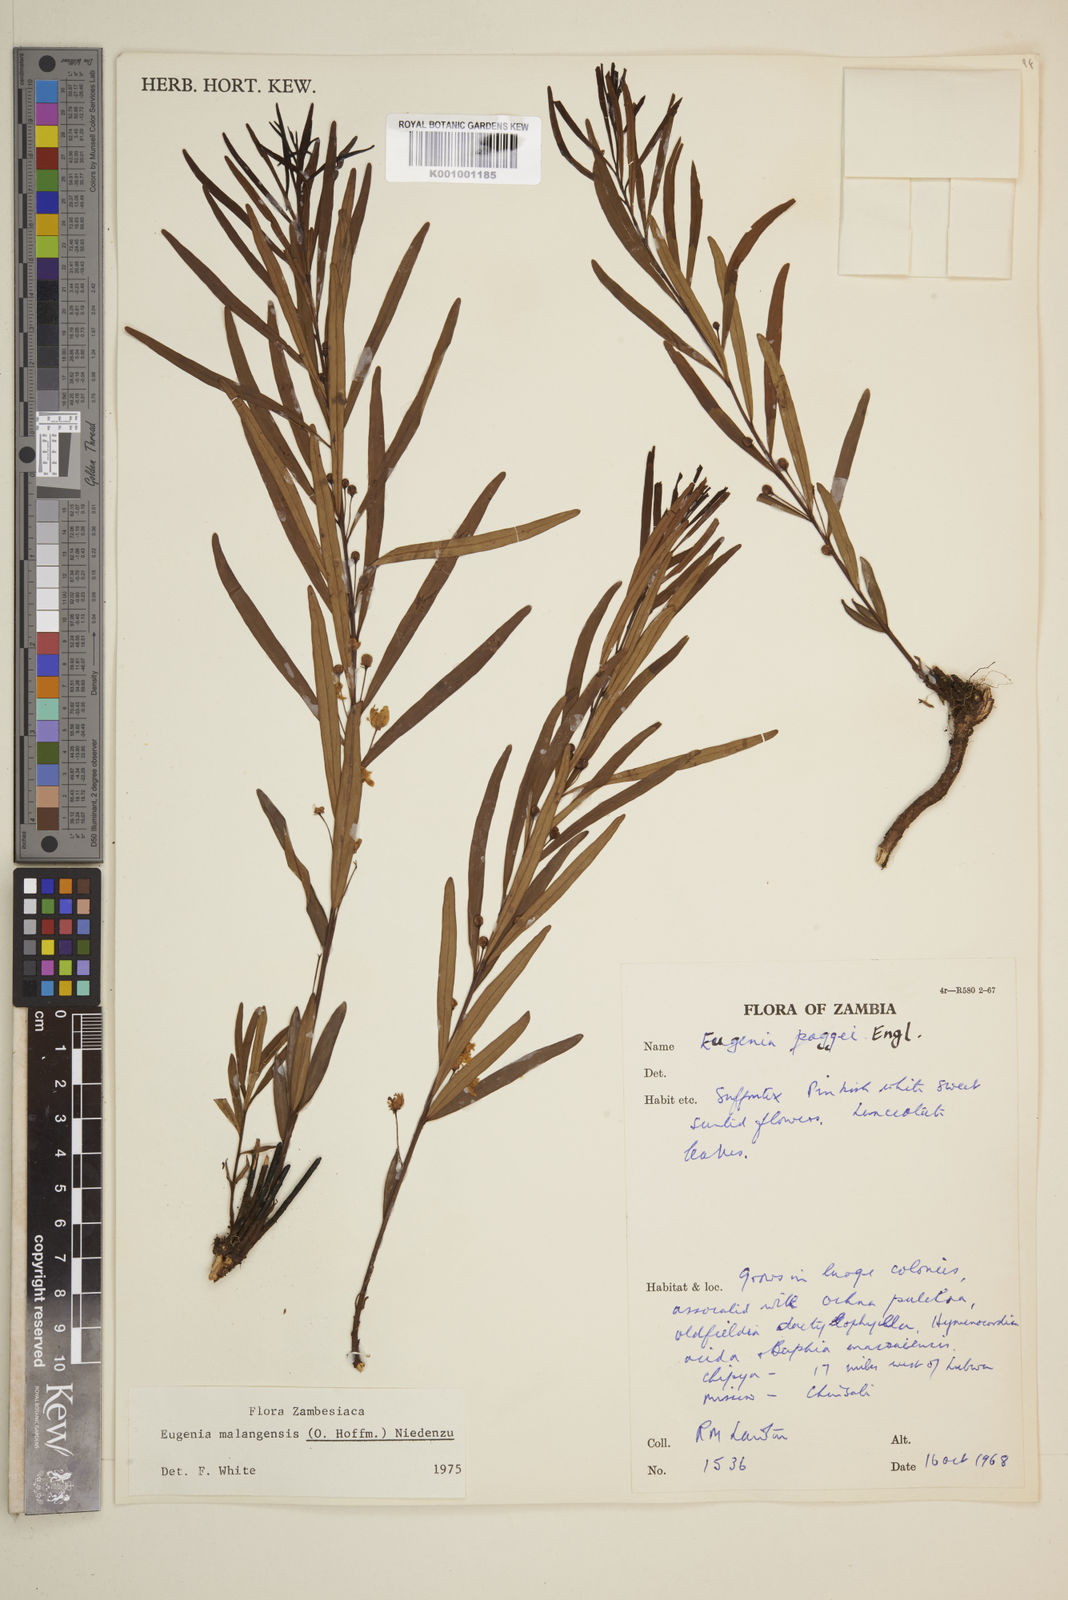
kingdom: Plantae
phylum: Tracheophyta
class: Magnoliopsida
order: Myrtales
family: Myrtaceae
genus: Eugenia
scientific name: Eugenia malangensis
